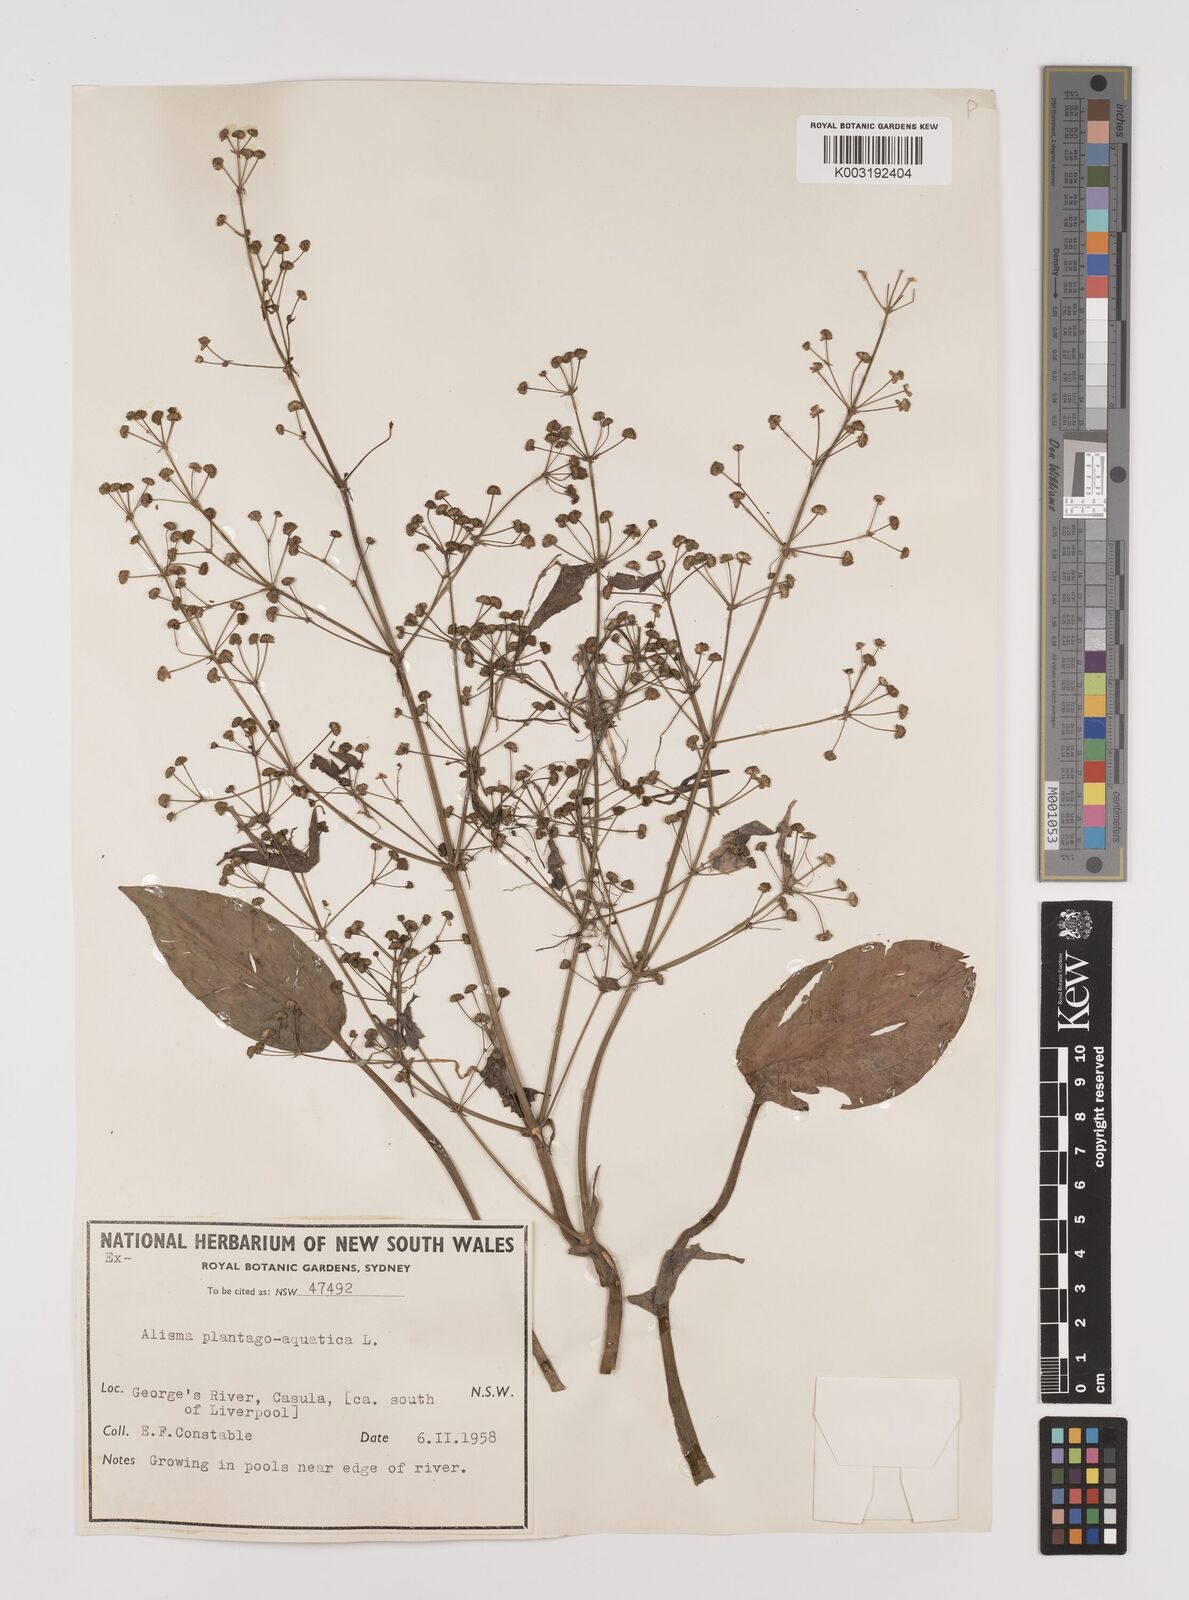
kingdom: Plantae
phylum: Tracheophyta
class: Liliopsida
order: Alismatales
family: Alismataceae
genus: Alisma
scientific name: Alisma plantago-aquatica
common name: Water-plantain
